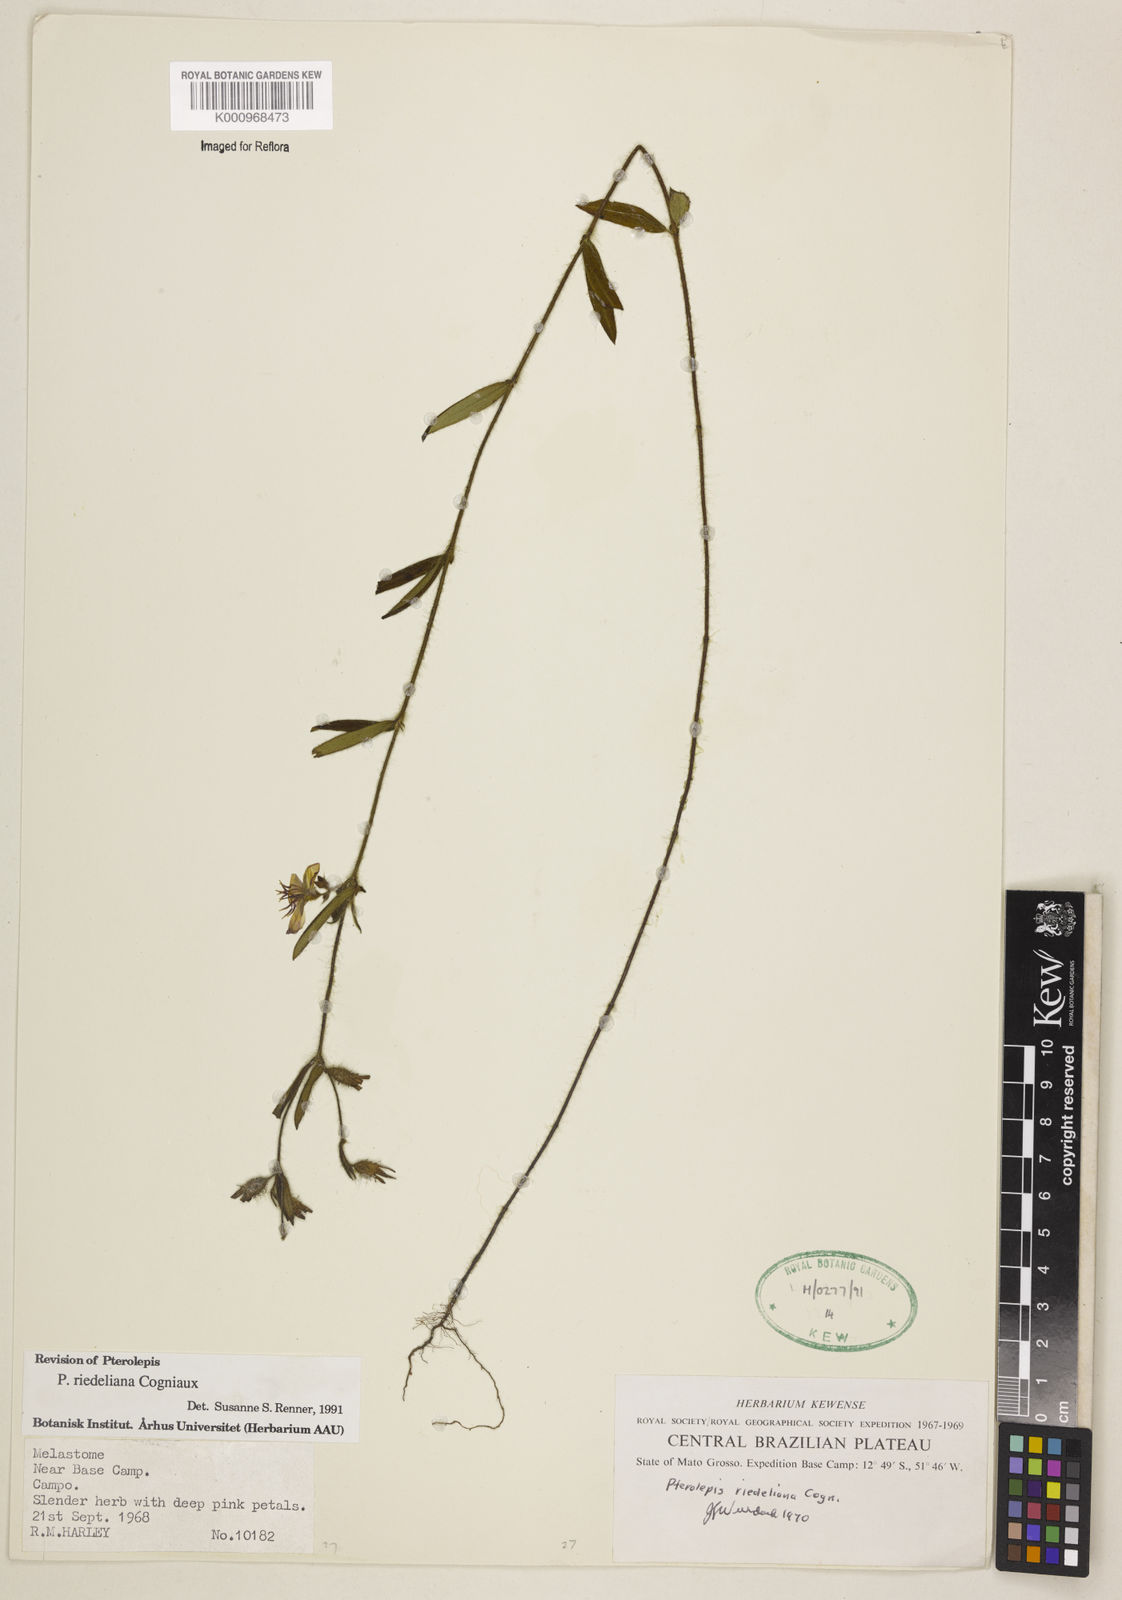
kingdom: Plantae
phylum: Tracheophyta
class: Magnoliopsida
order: Myrtales
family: Melastomataceae
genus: Pterolepis
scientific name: Pterolepis
